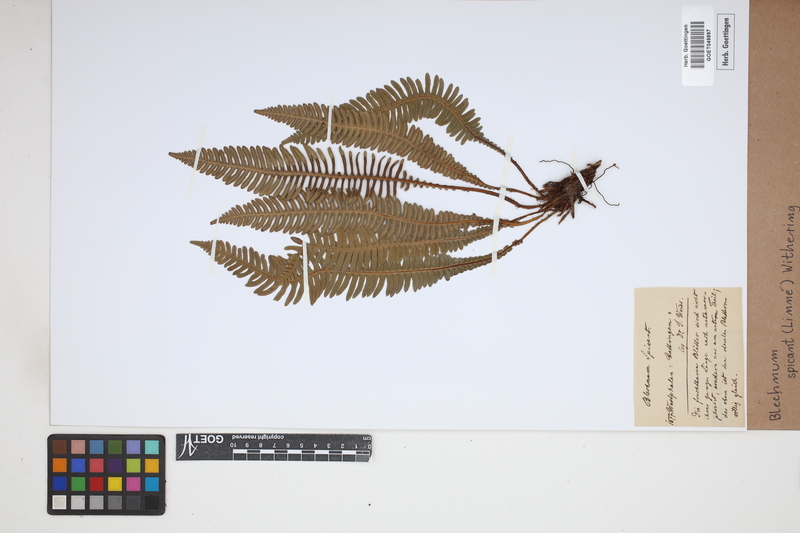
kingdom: Plantae
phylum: Tracheophyta
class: Polypodiopsida
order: Polypodiales
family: Blechnaceae
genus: Struthiopteris
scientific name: Struthiopteris spicant
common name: Deer fern
